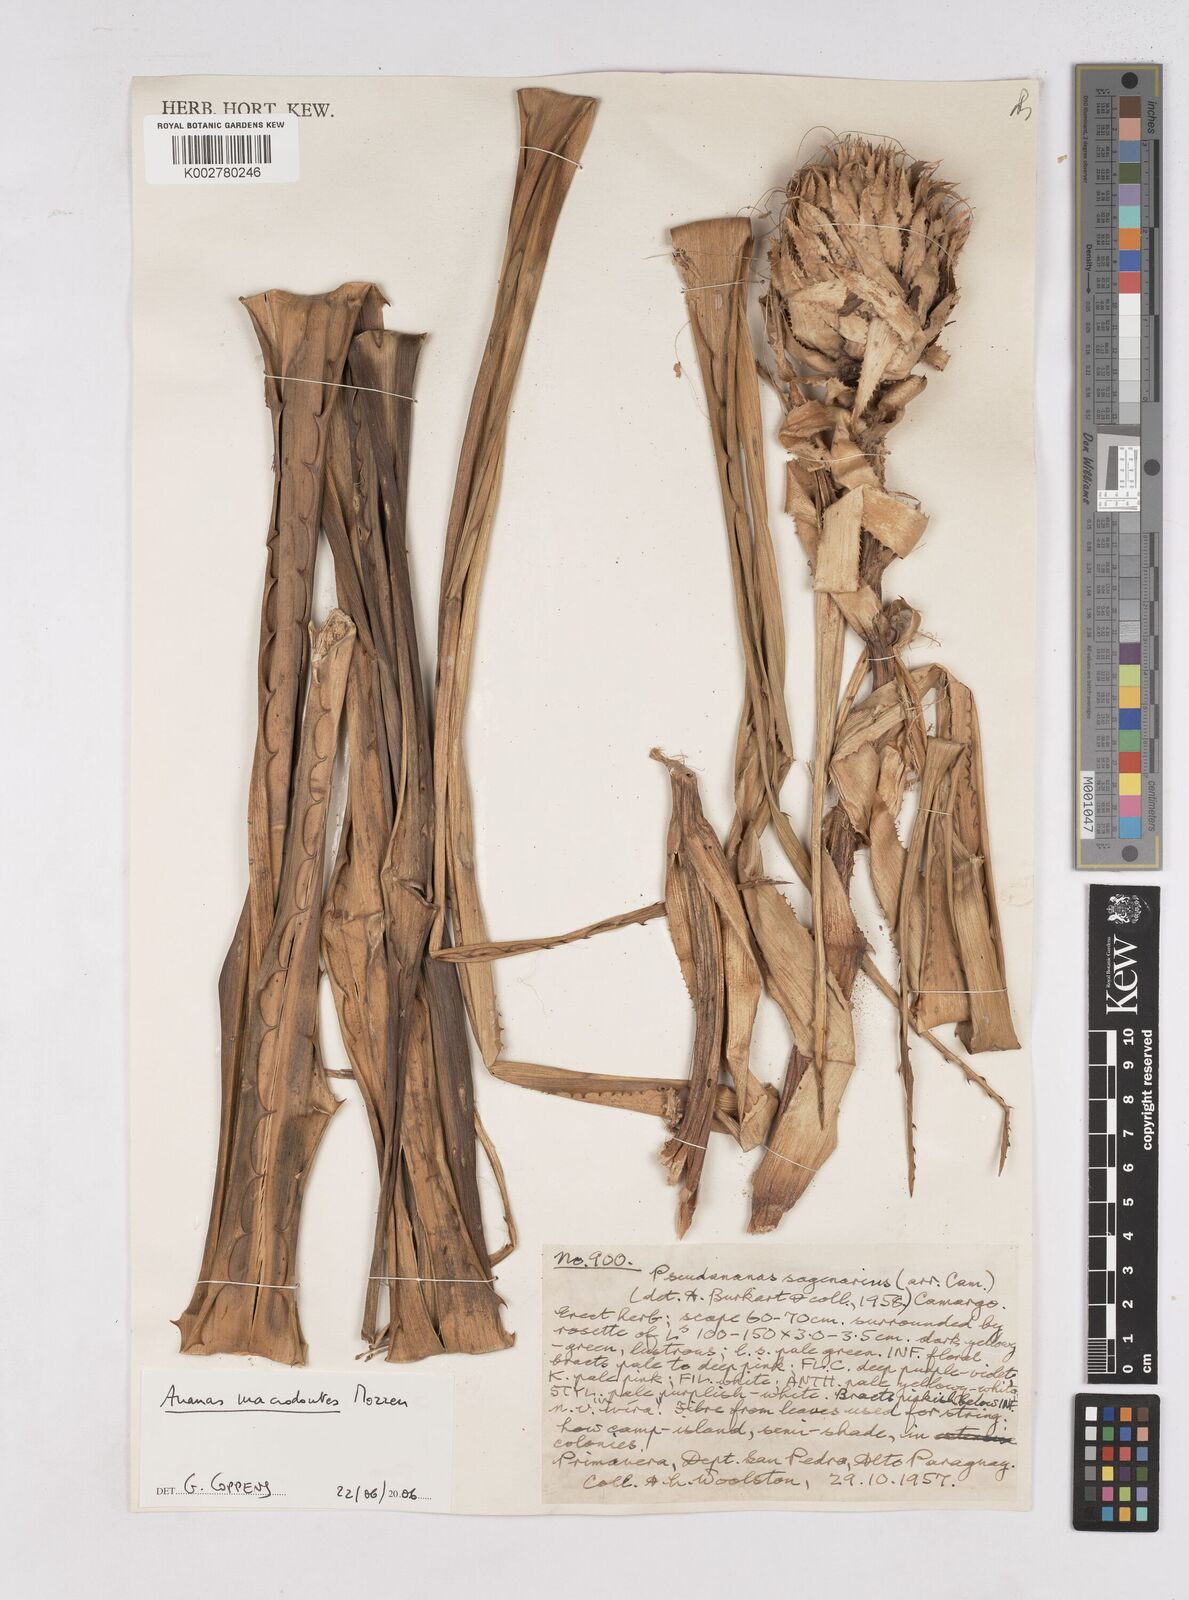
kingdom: Plantae
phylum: Tracheophyta
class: Liliopsida
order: Poales
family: Bromeliaceae
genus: Ananas
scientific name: Ananas comosus
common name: Pineapple
